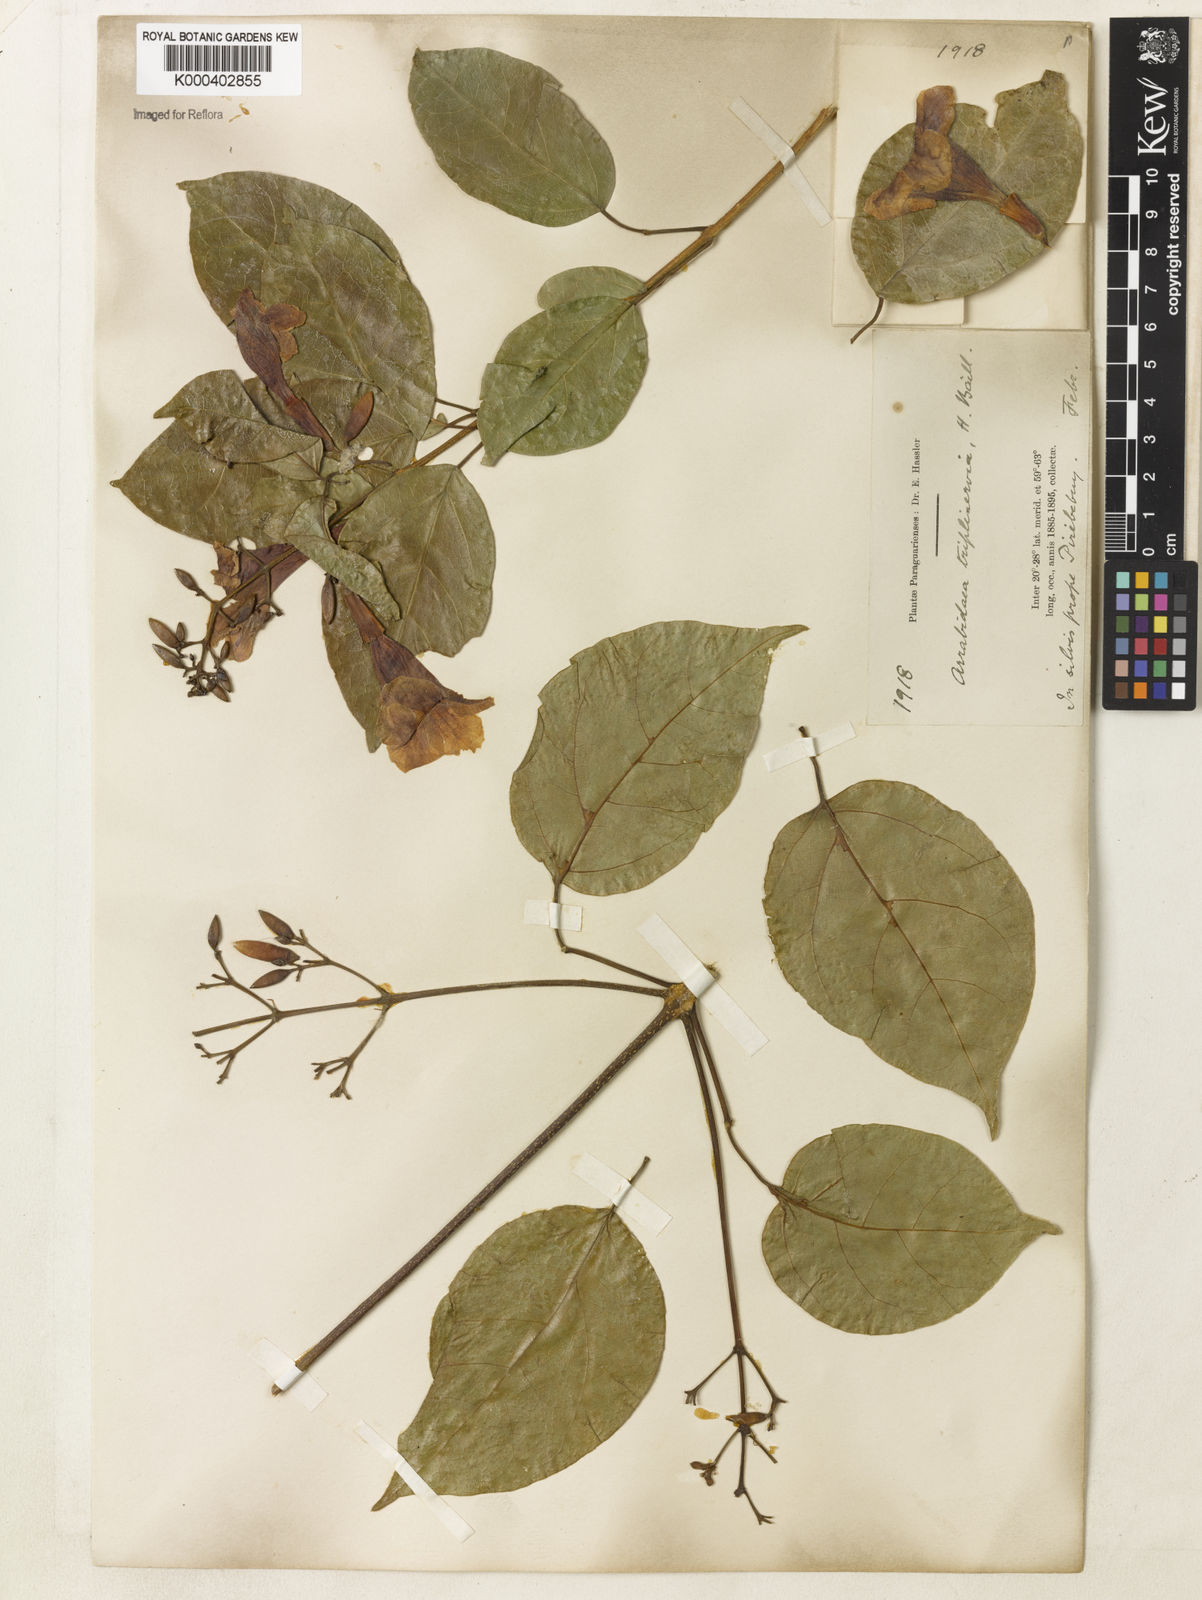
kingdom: Plantae
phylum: Tracheophyta
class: Magnoliopsida
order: Lamiales
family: Bignoniaceae
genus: Fridericia
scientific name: Fridericia triplinervia
